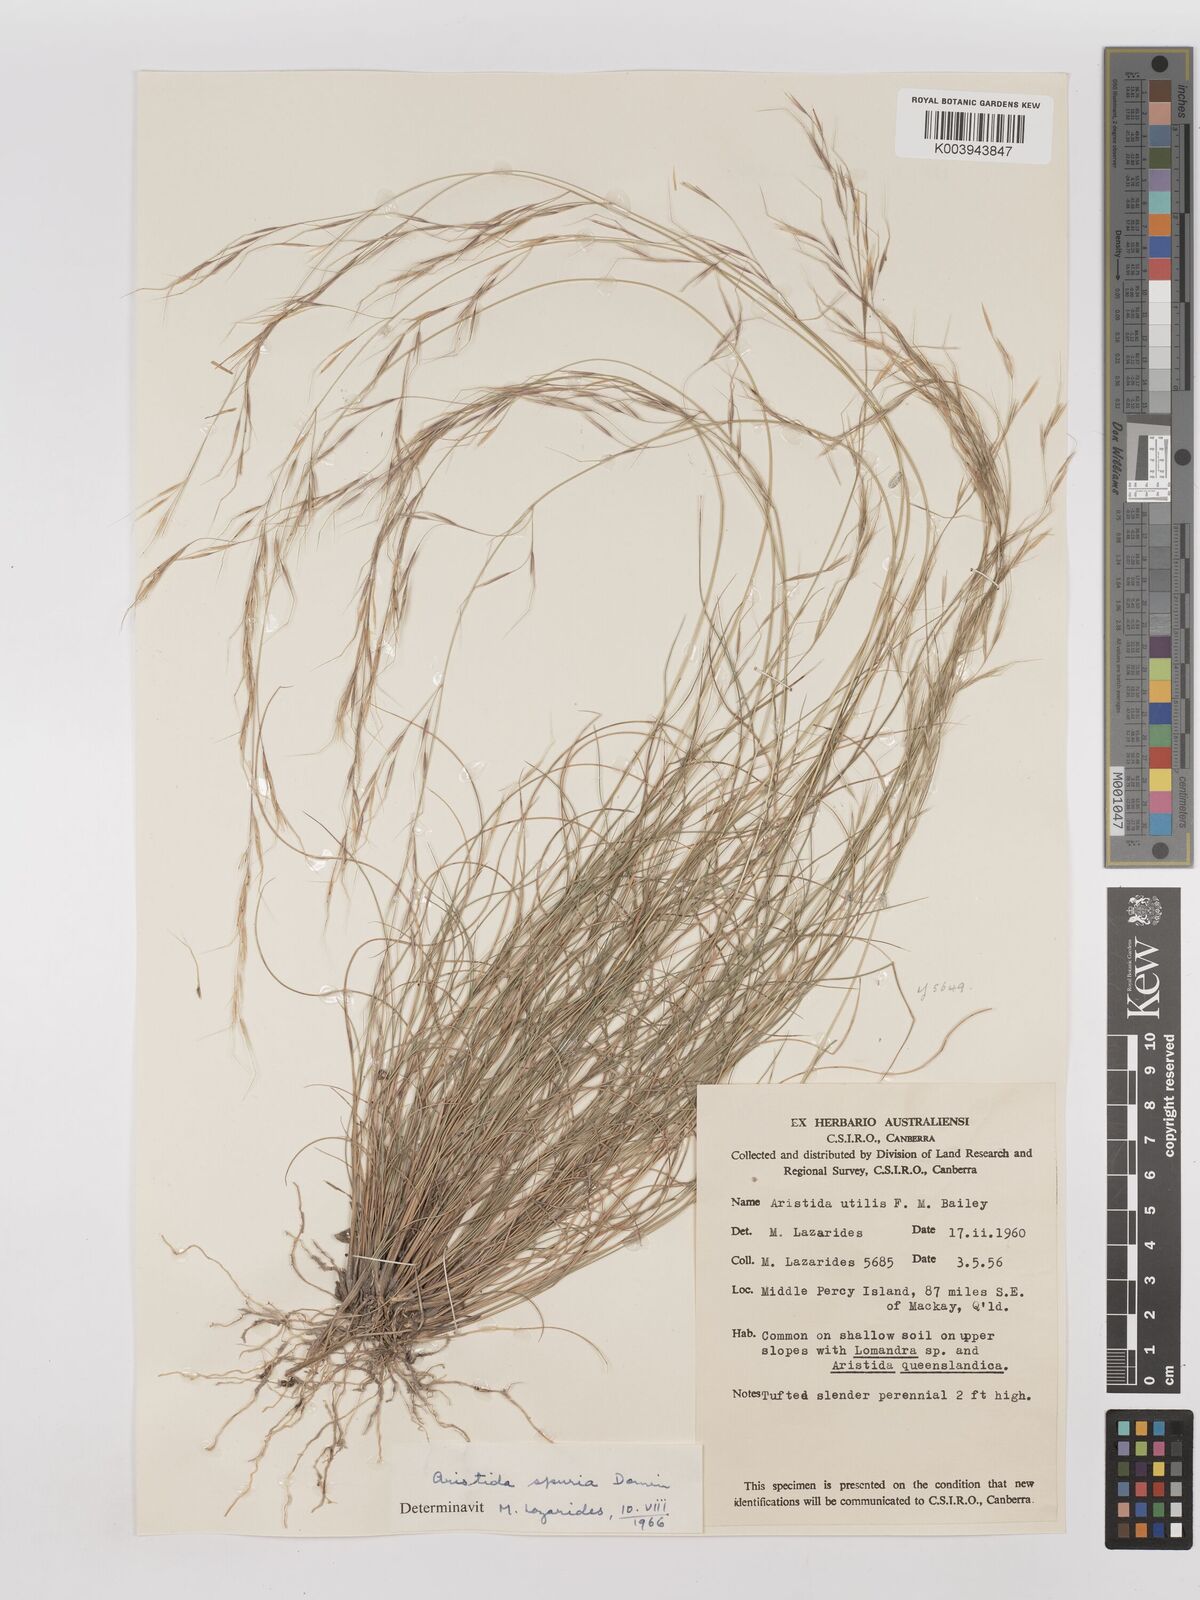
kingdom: Plantae
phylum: Tracheophyta
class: Liliopsida
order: Poales
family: Poaceae
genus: Aristida
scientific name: Aristida spuria
